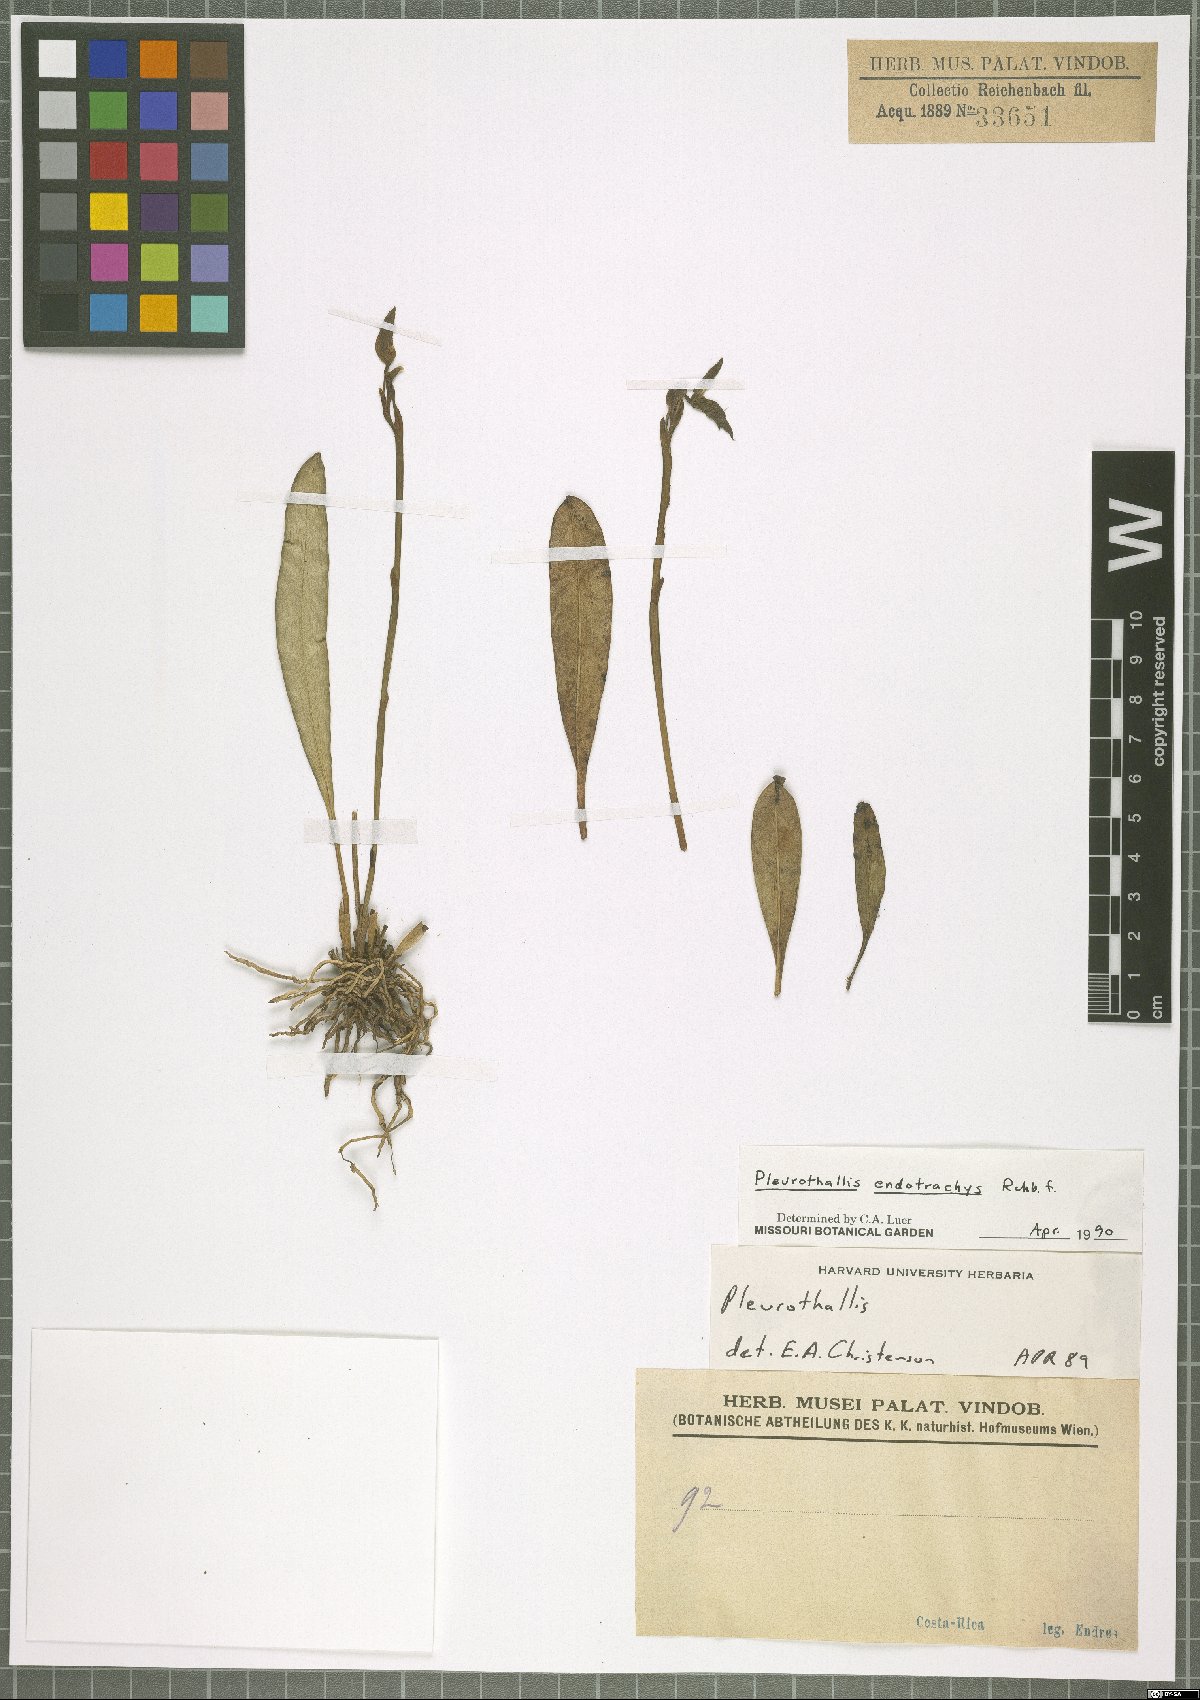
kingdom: Plantae
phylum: Tracheophyta
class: Liliopsida
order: Asparagales
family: Orchidaceae
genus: Specklinia
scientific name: Specklinia endotrachys
